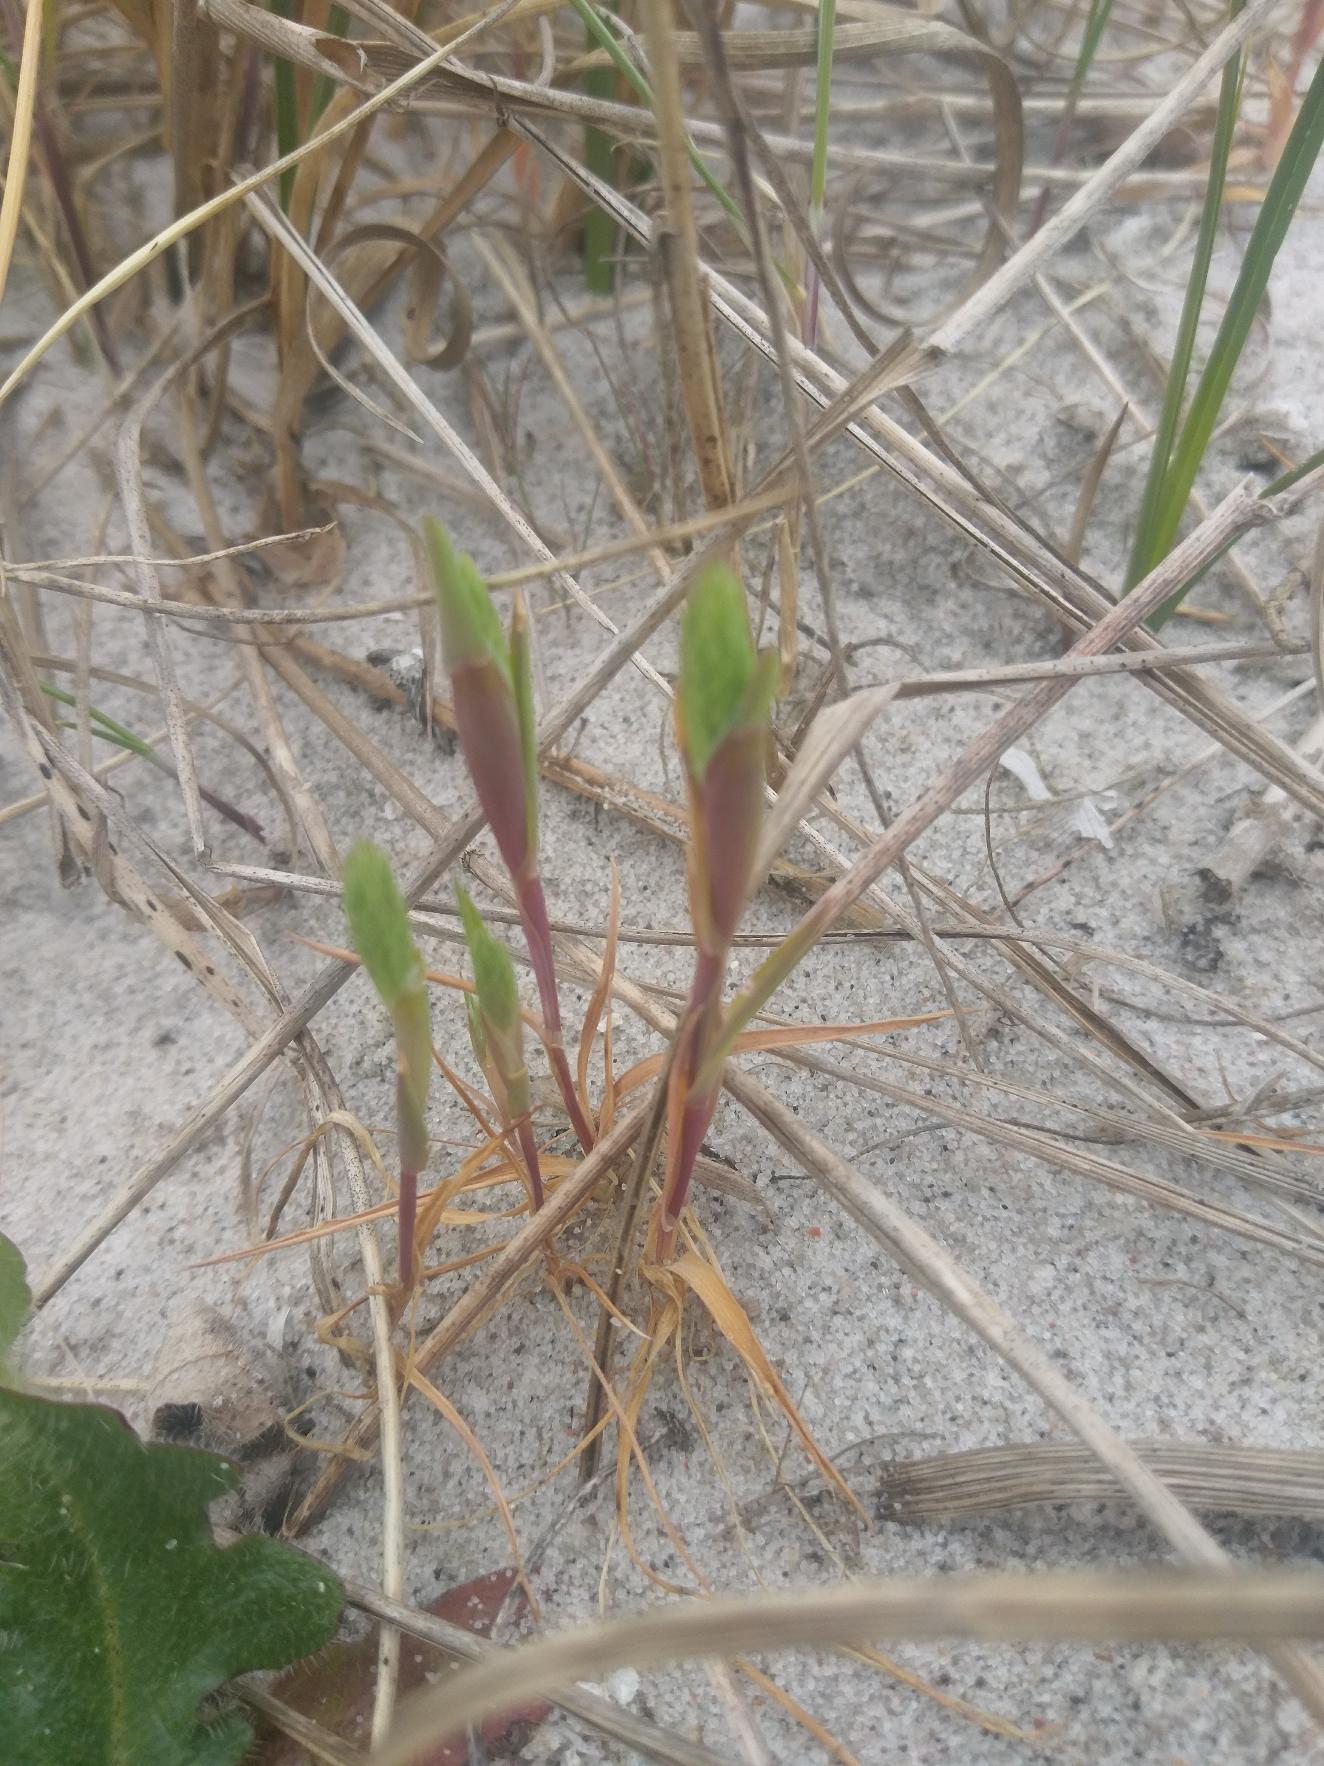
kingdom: Plantae
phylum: Tracheophyta
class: Liliopsida
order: Poales
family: Poaceae
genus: Phleum
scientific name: Phleum arenarium
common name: Sand-rottehale
